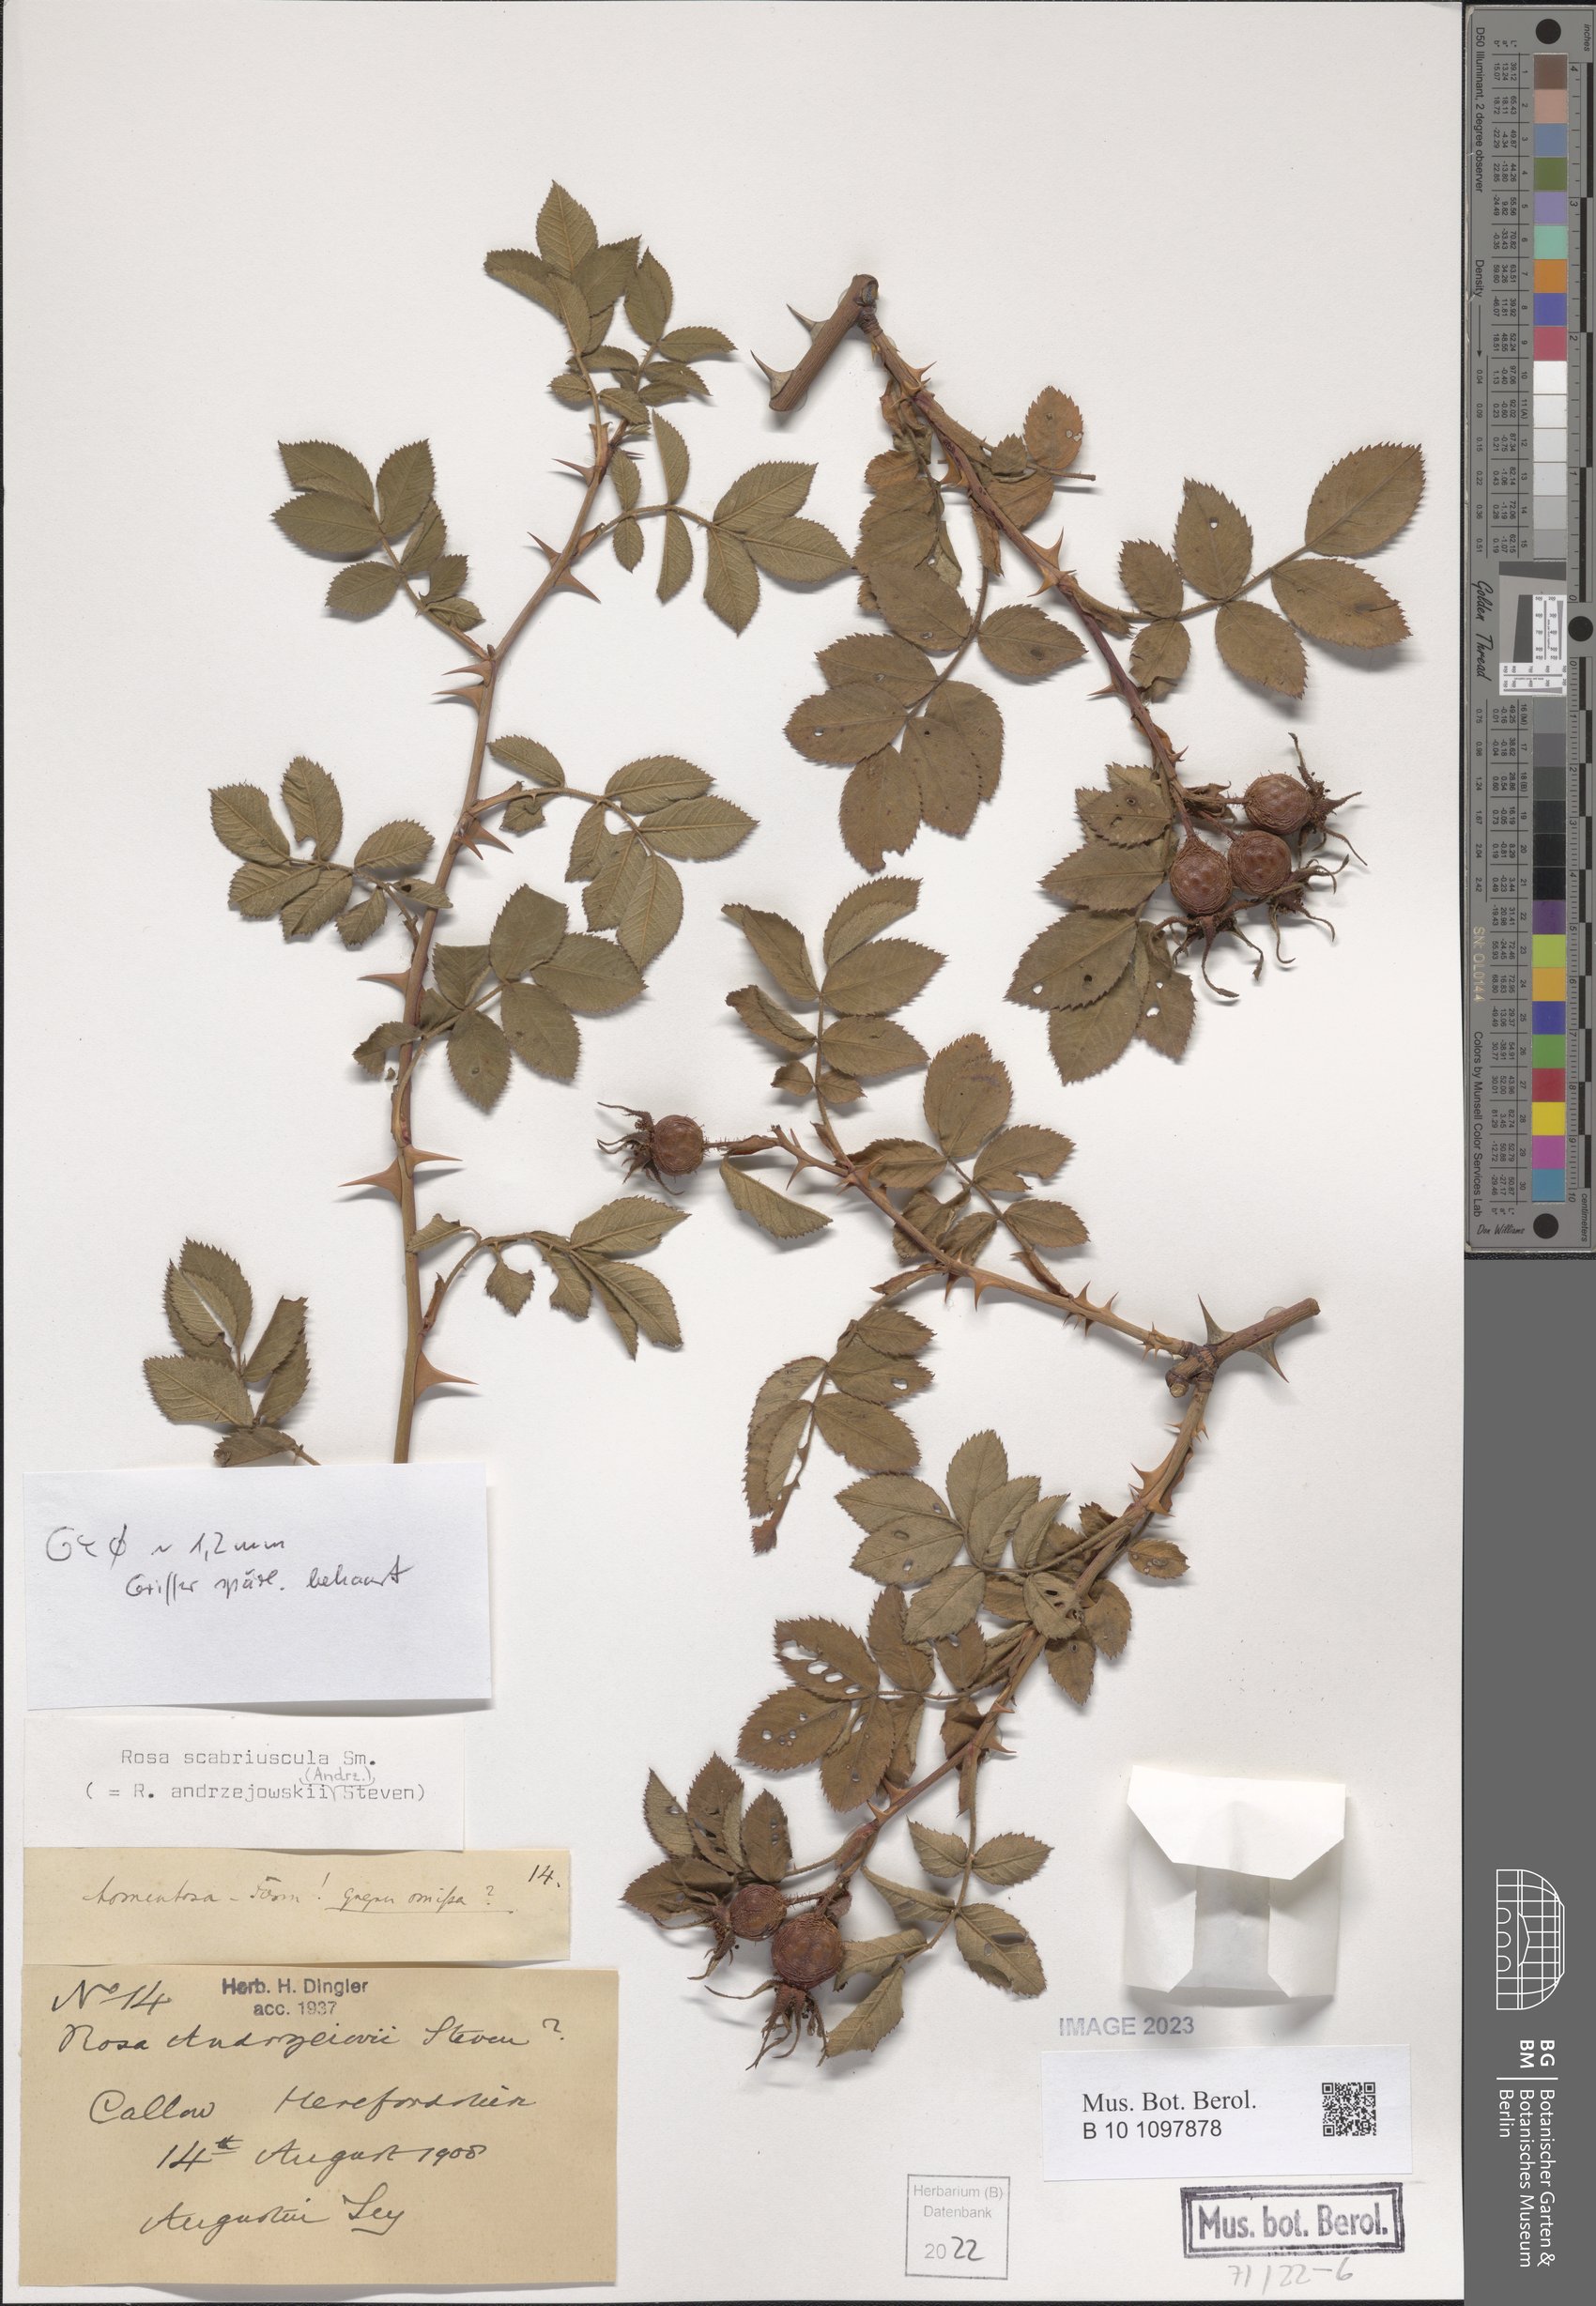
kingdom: Plantae
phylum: Tracheophyta
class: Magnoliopsida
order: Rosales
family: Rosaceae
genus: Rosa
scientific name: Rosa scabriuscula
